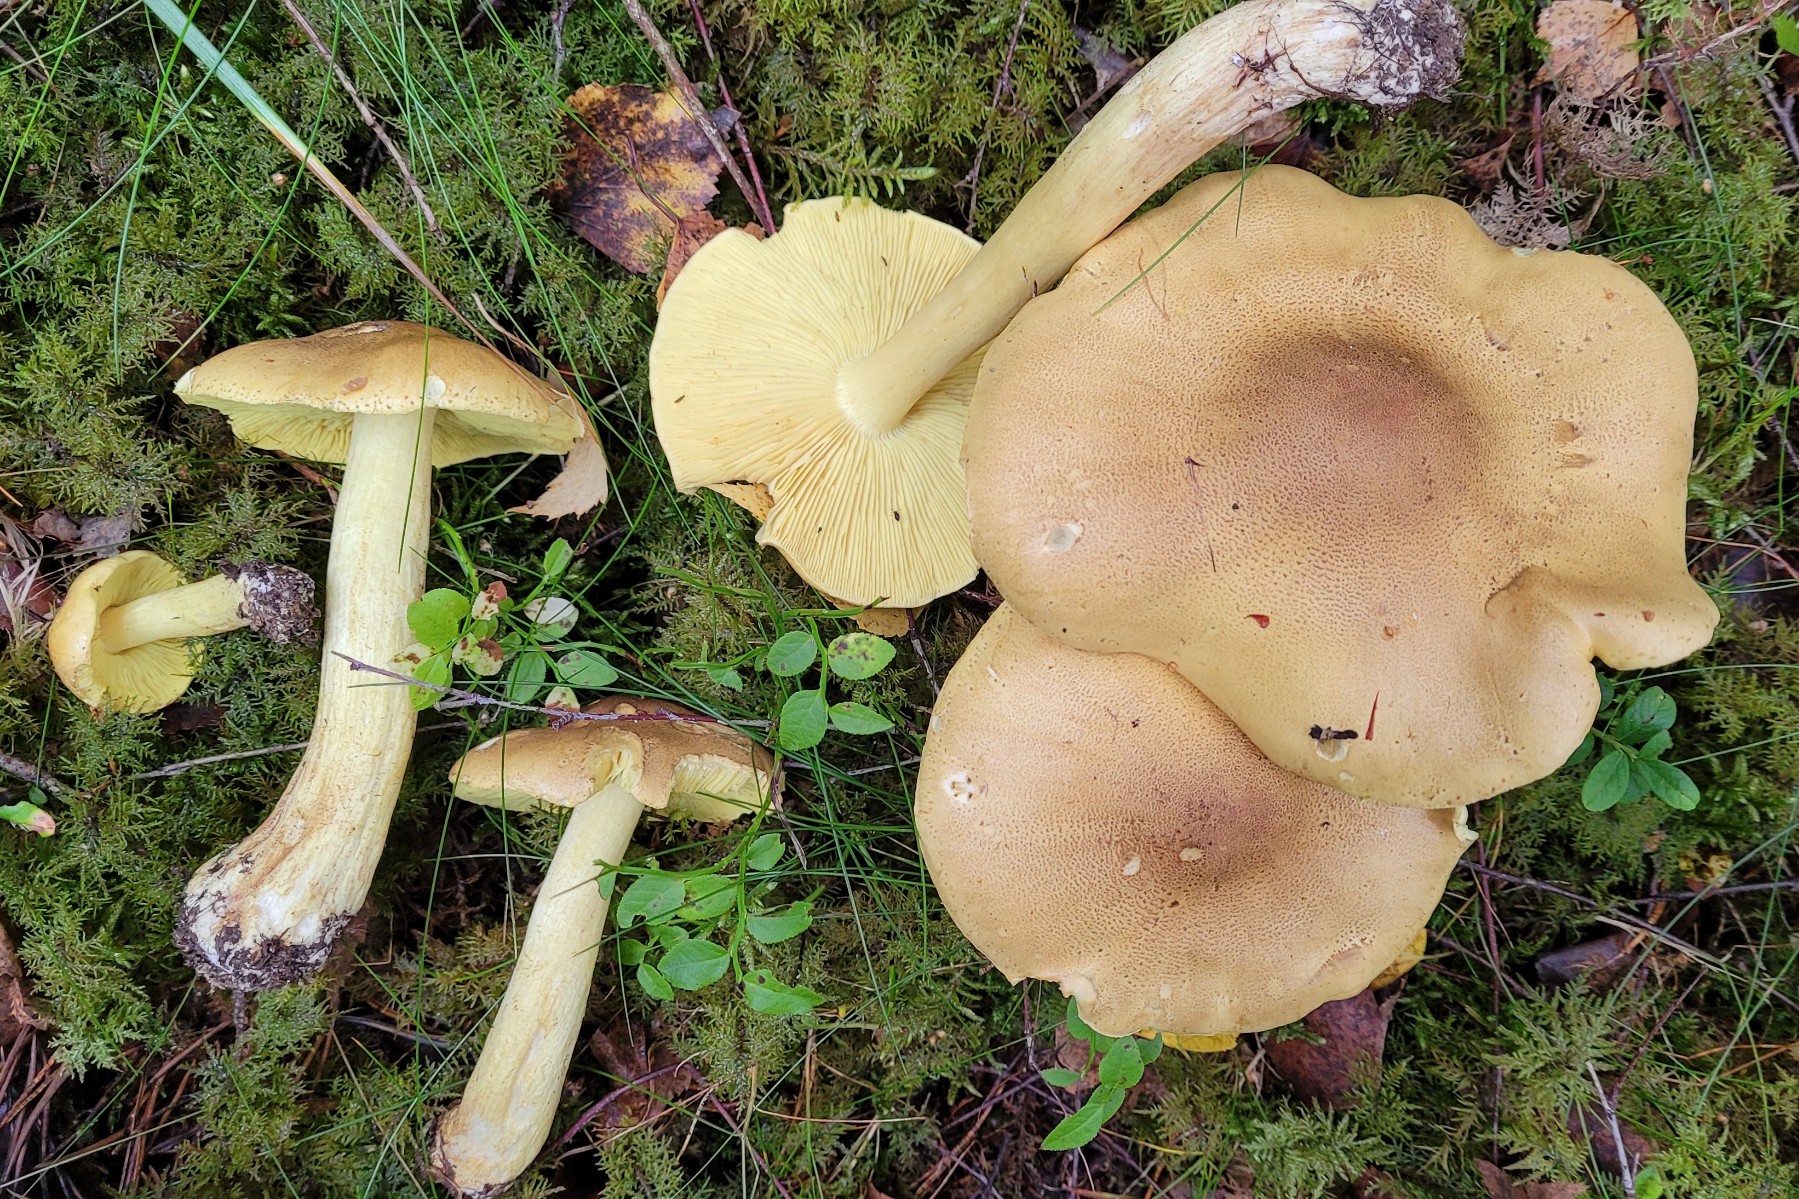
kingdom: Fungi
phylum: Basidiomycota
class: Agaricomycetes
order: Agaricales
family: Tricholomataceae
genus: Tricholoma
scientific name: Tricholoma frondosae
